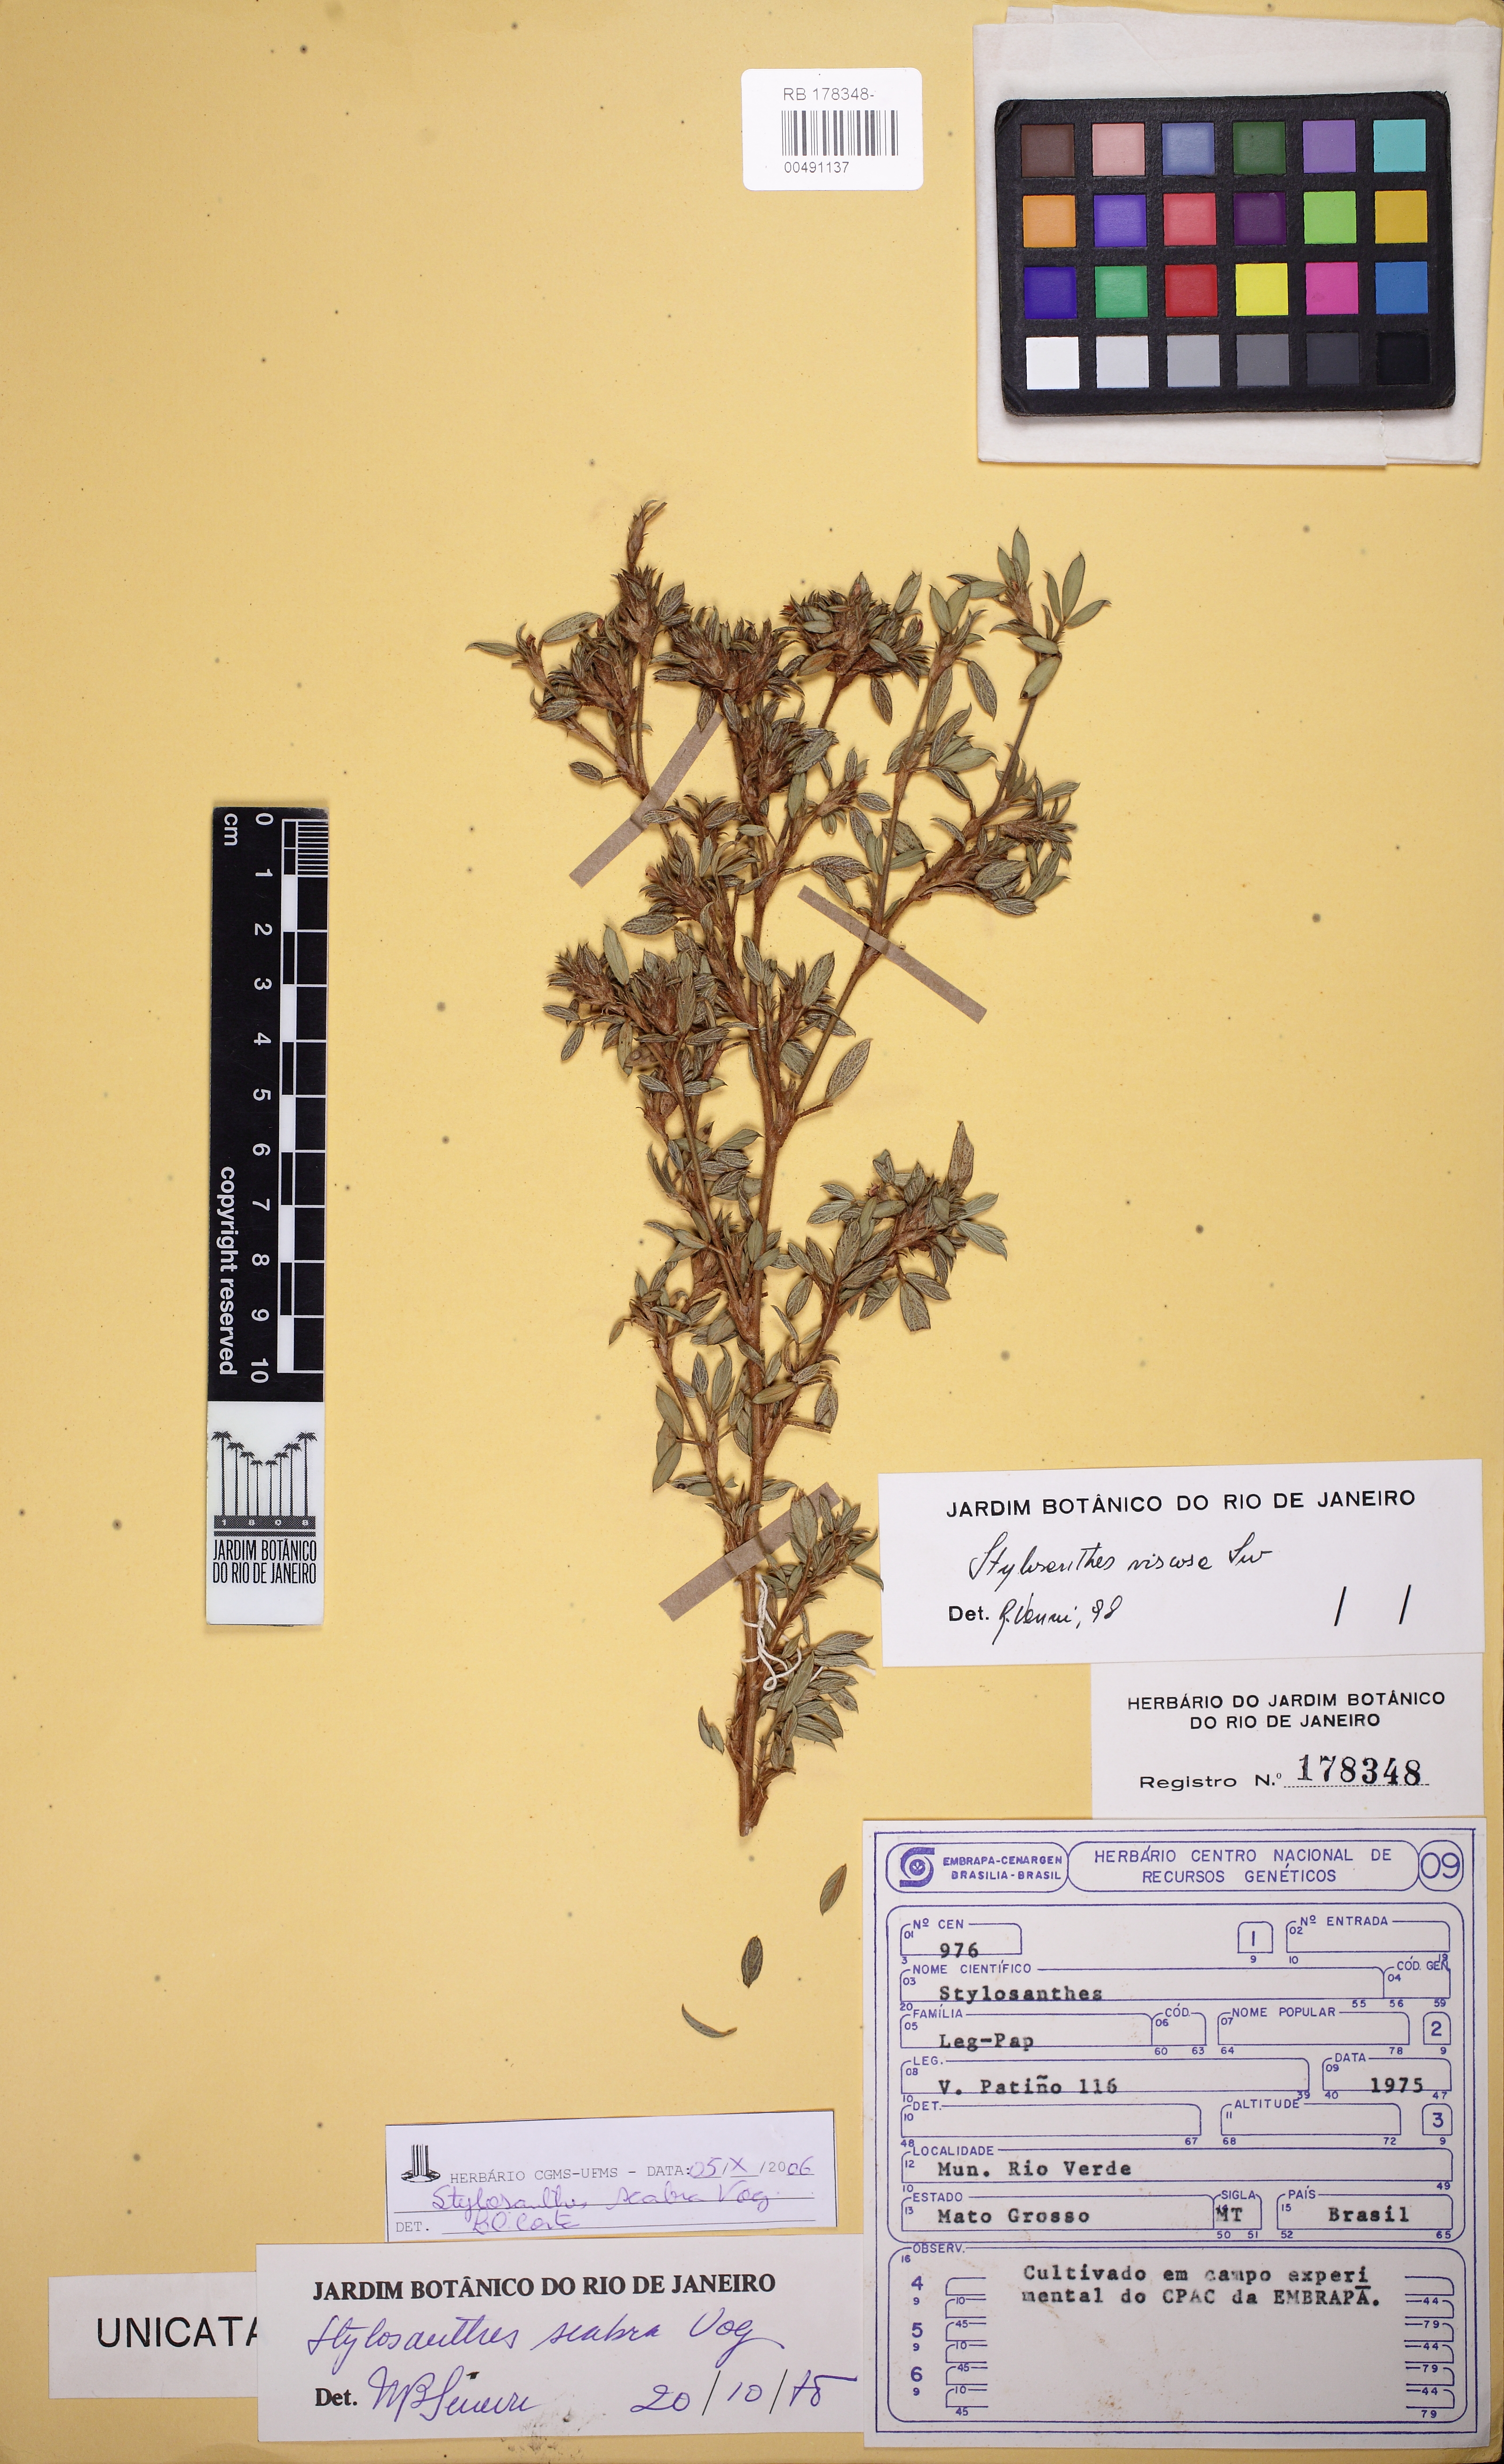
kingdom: Plantae
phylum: Tracheophyta
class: Magnoliopsida
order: Fabales
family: Fabaceae
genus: Stylosanthes
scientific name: Stylosanthes scabra
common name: Pencilflower
